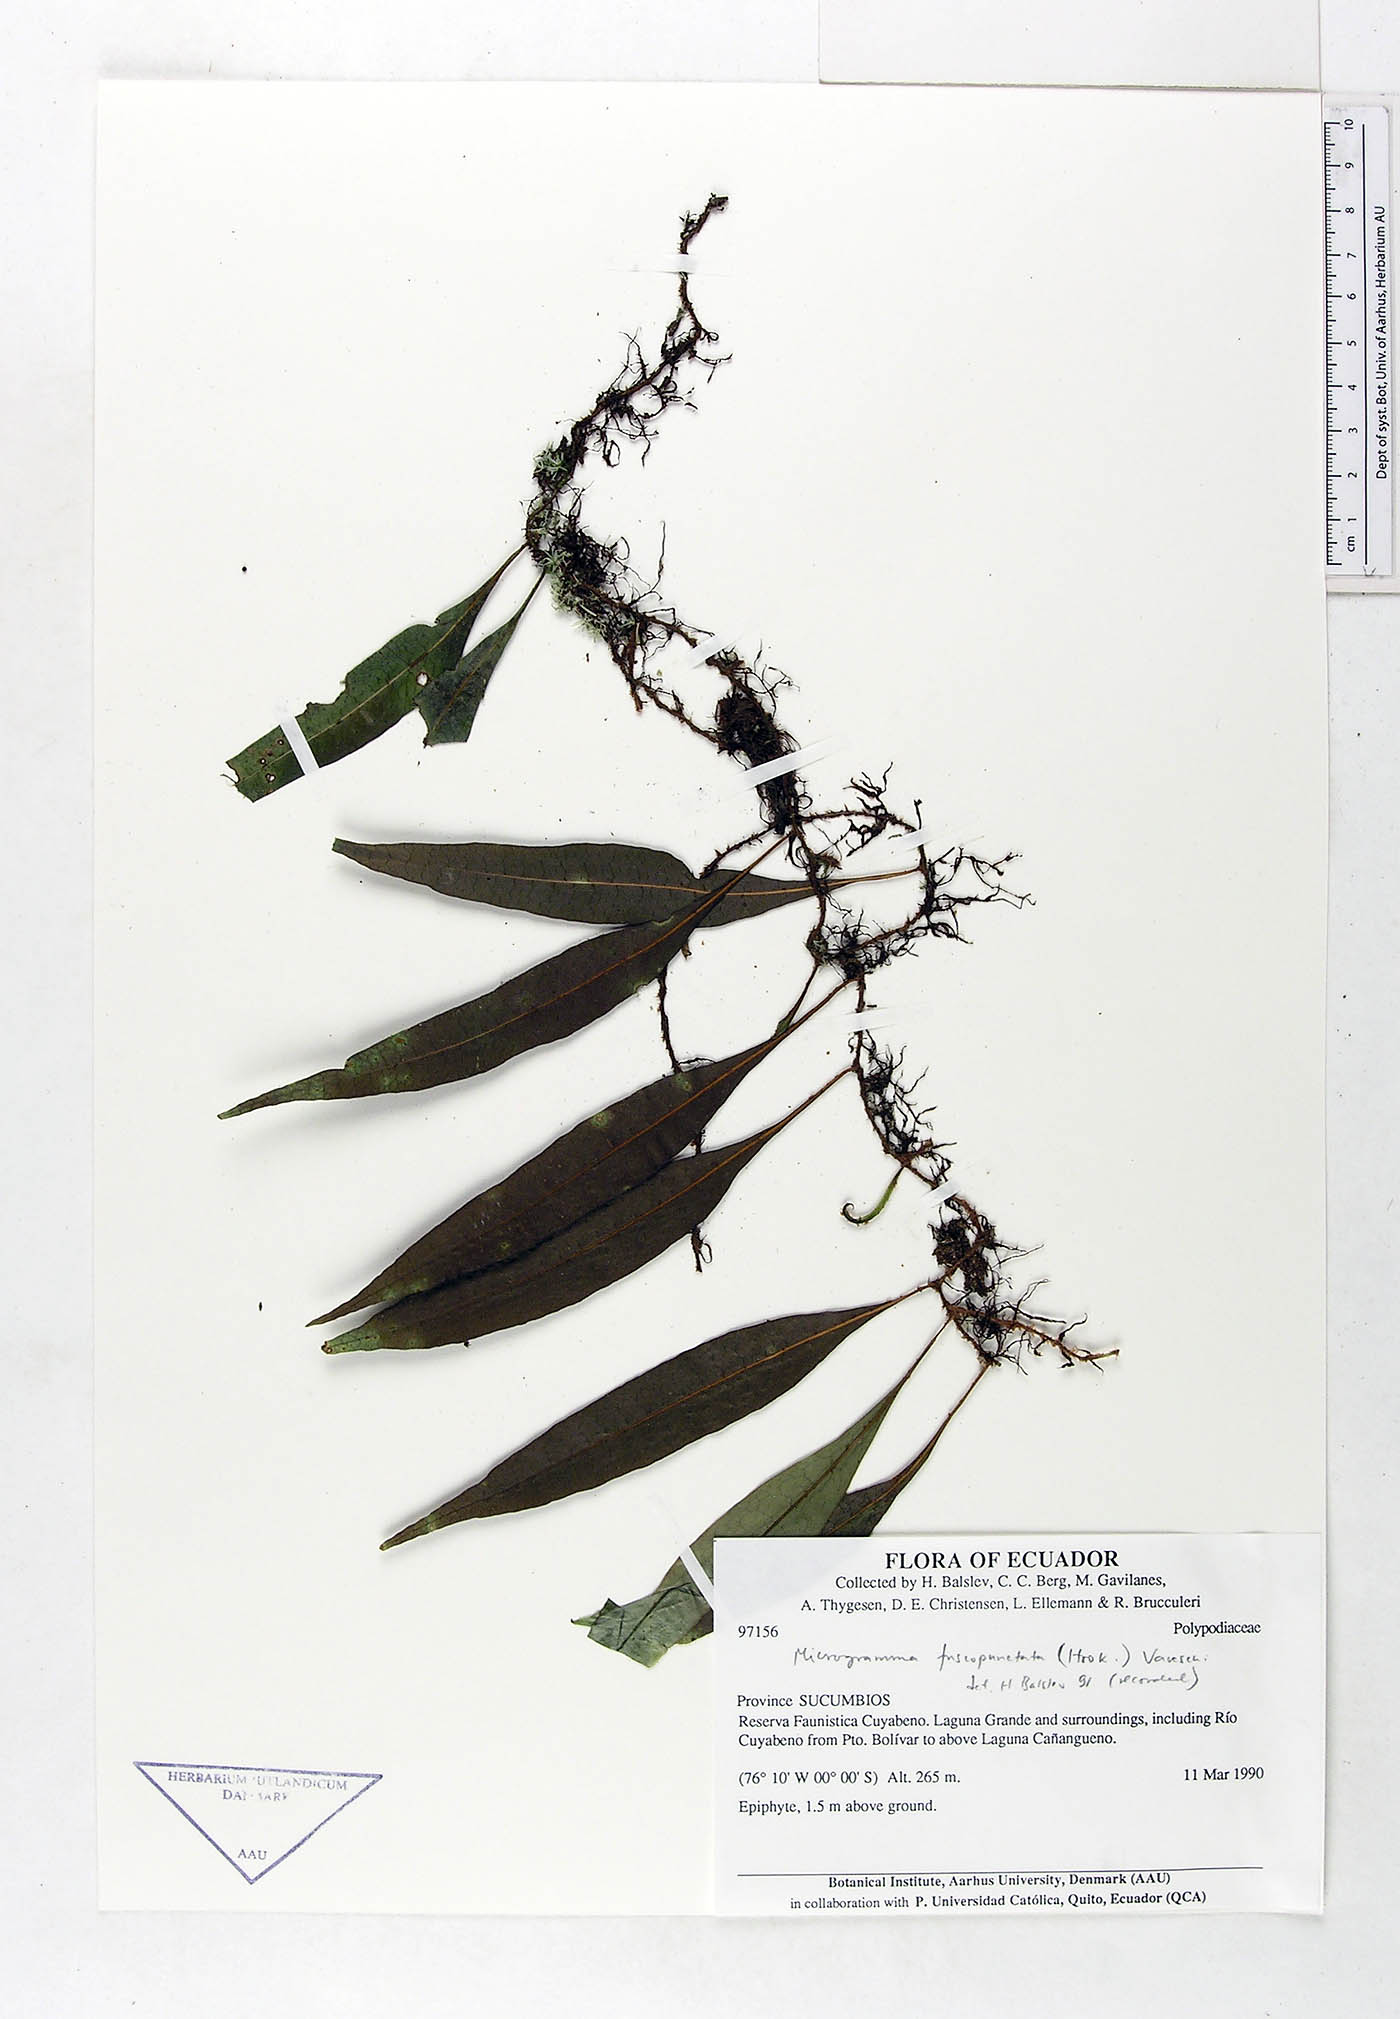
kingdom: Plantae
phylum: Tracheophyta
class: Polypodiopsida
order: Polypodiales
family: Polypodiaceae
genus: Microgramma
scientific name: Microgramma dictyophylla
